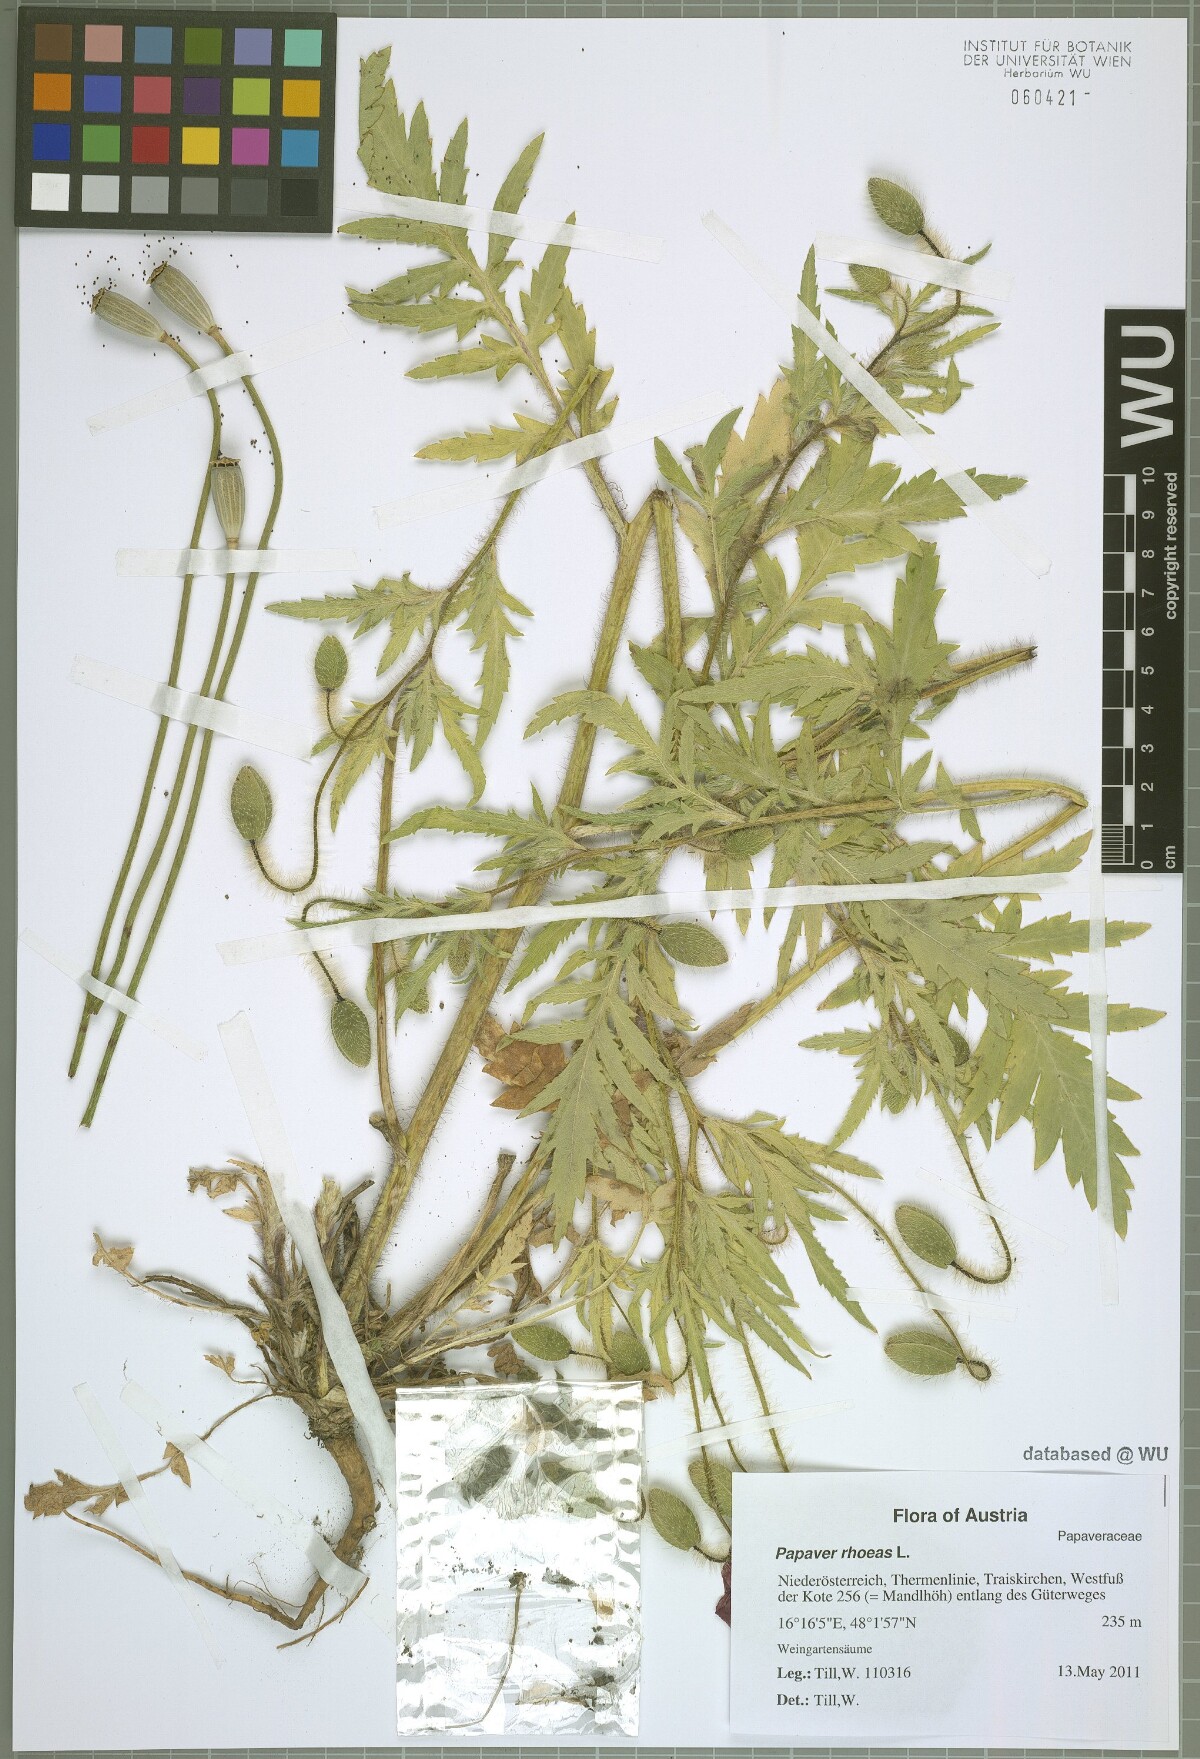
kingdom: Plantae
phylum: Tracheophyta
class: Magnoliopsida
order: Ranunculales
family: Papaveraceae
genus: Papaver
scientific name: Papaver rhoeas
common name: Corn poppy
